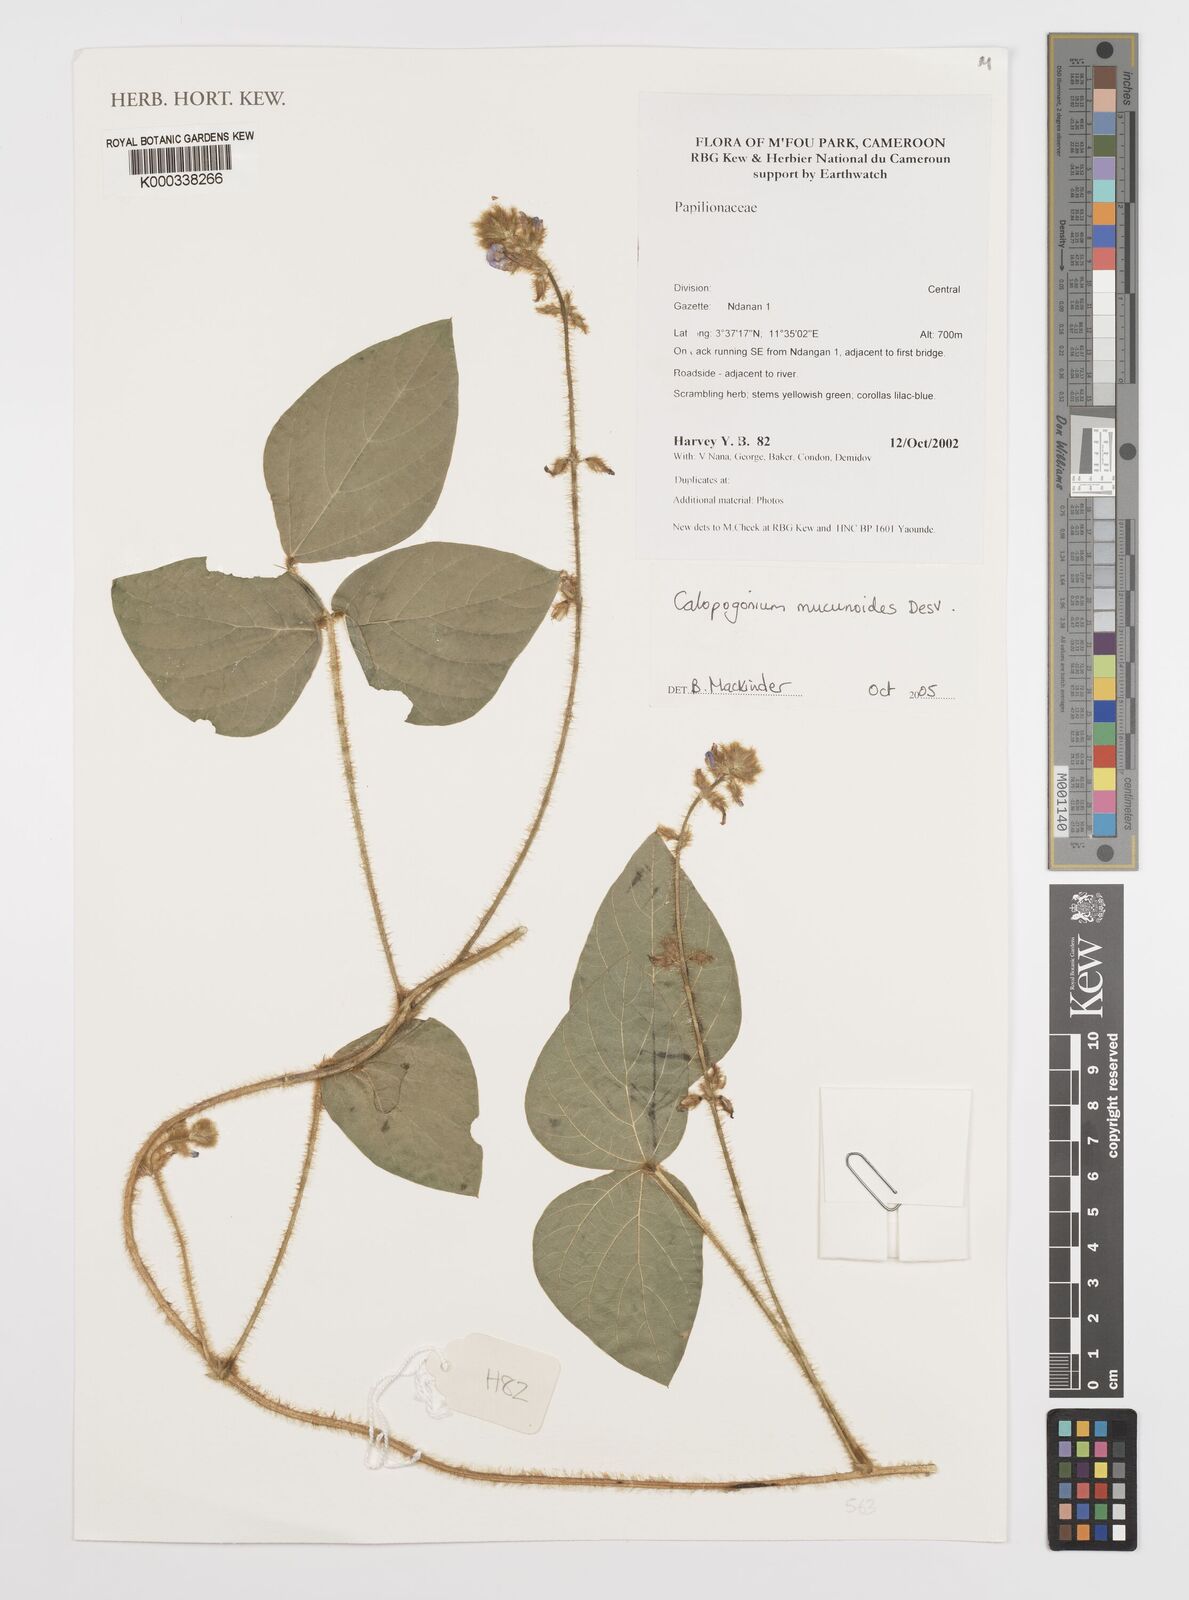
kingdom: Plantae
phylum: Tracheophyta
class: Magnoliopsida
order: Fabales
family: Fabaceae
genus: Calopogonium
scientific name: Calopogonium mucunoides
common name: Calopo
